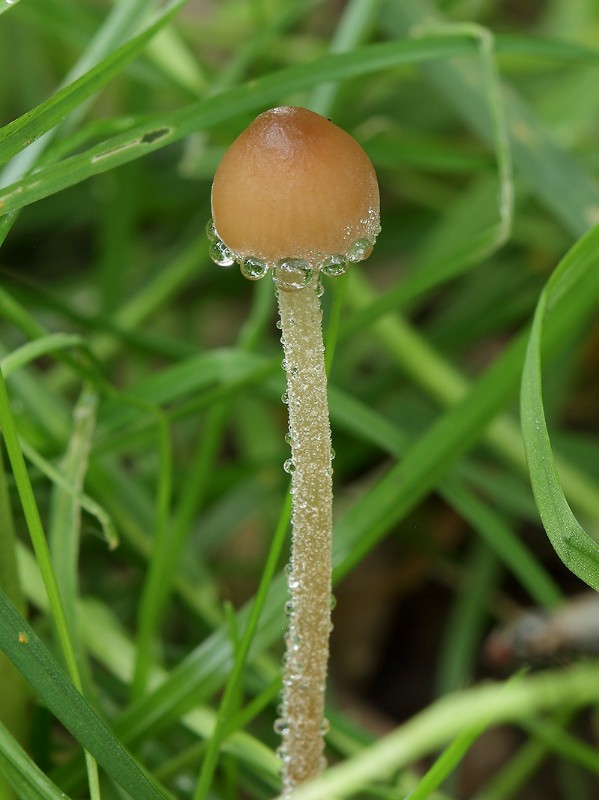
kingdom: Fungi
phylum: Basidiomycota
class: Agaricomycetes
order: Agaricales
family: Bolbitiaceae
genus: Panaeolus
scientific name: Panaeolus acuminatus
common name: høj glanshat
